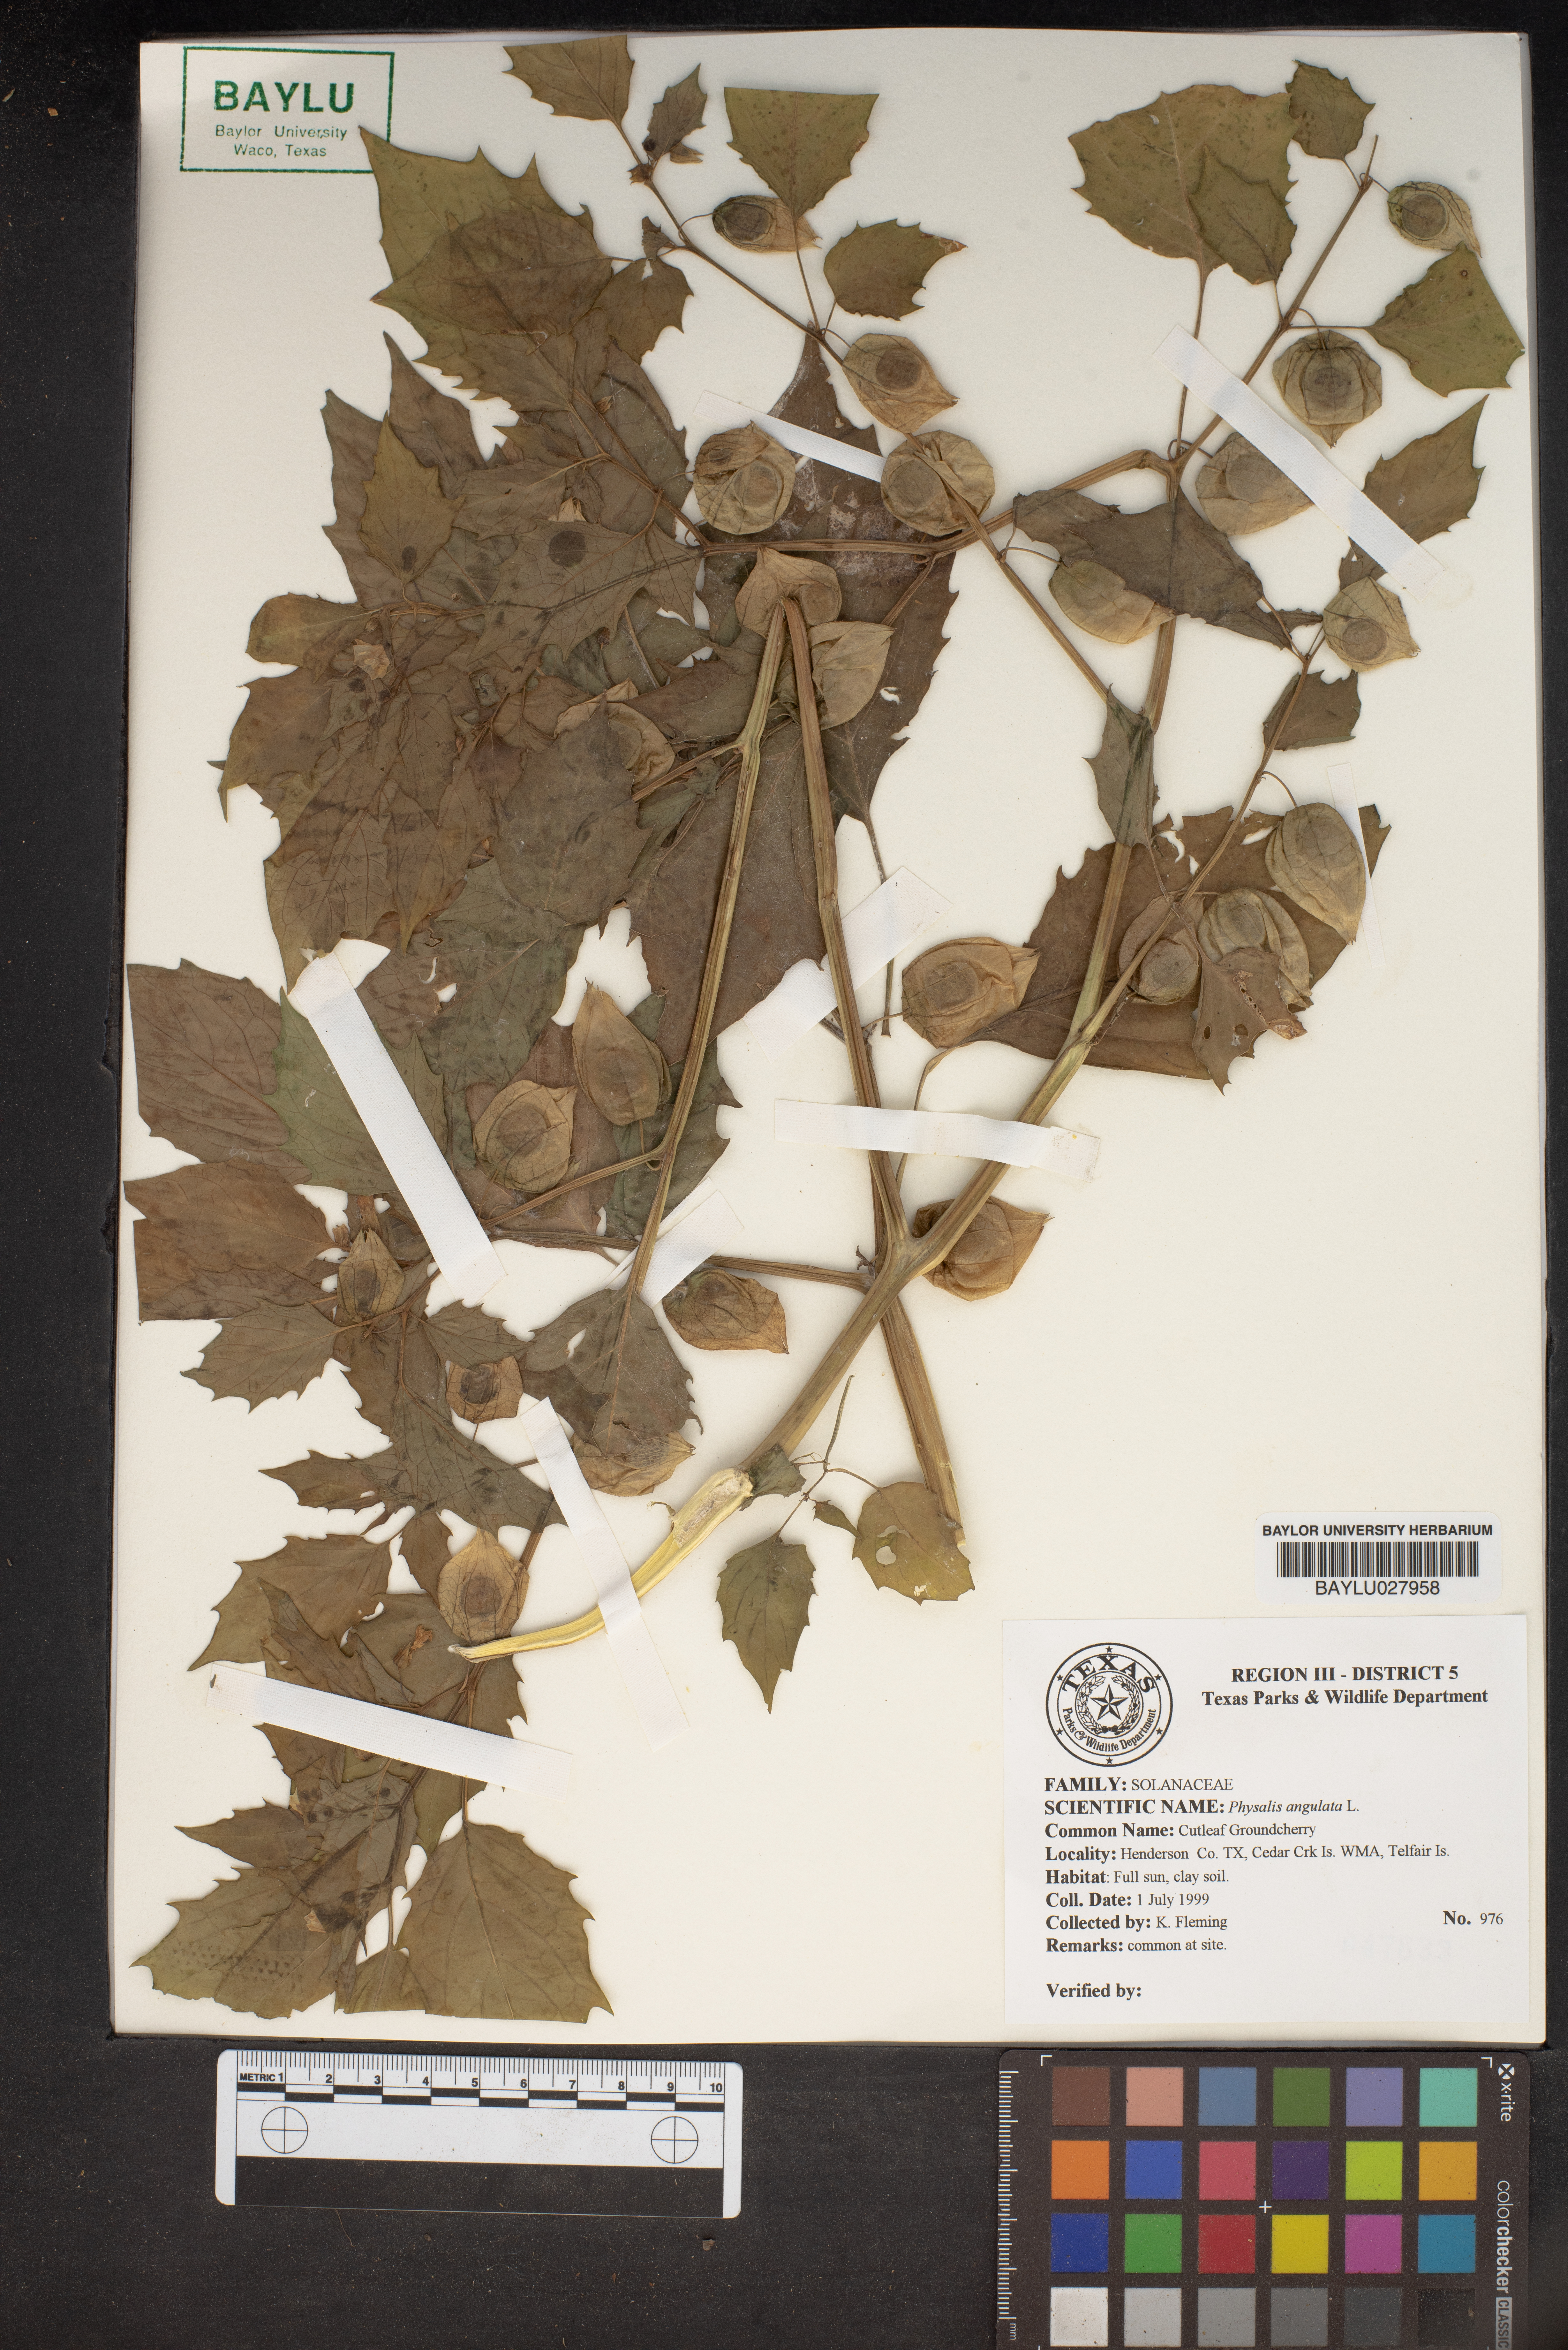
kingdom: Plantae
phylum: Tracheophyta
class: Magnoliopsida
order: Solanales
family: Solanaceae
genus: Physalis
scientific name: Physalis angulata
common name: Angular winter-cherry
